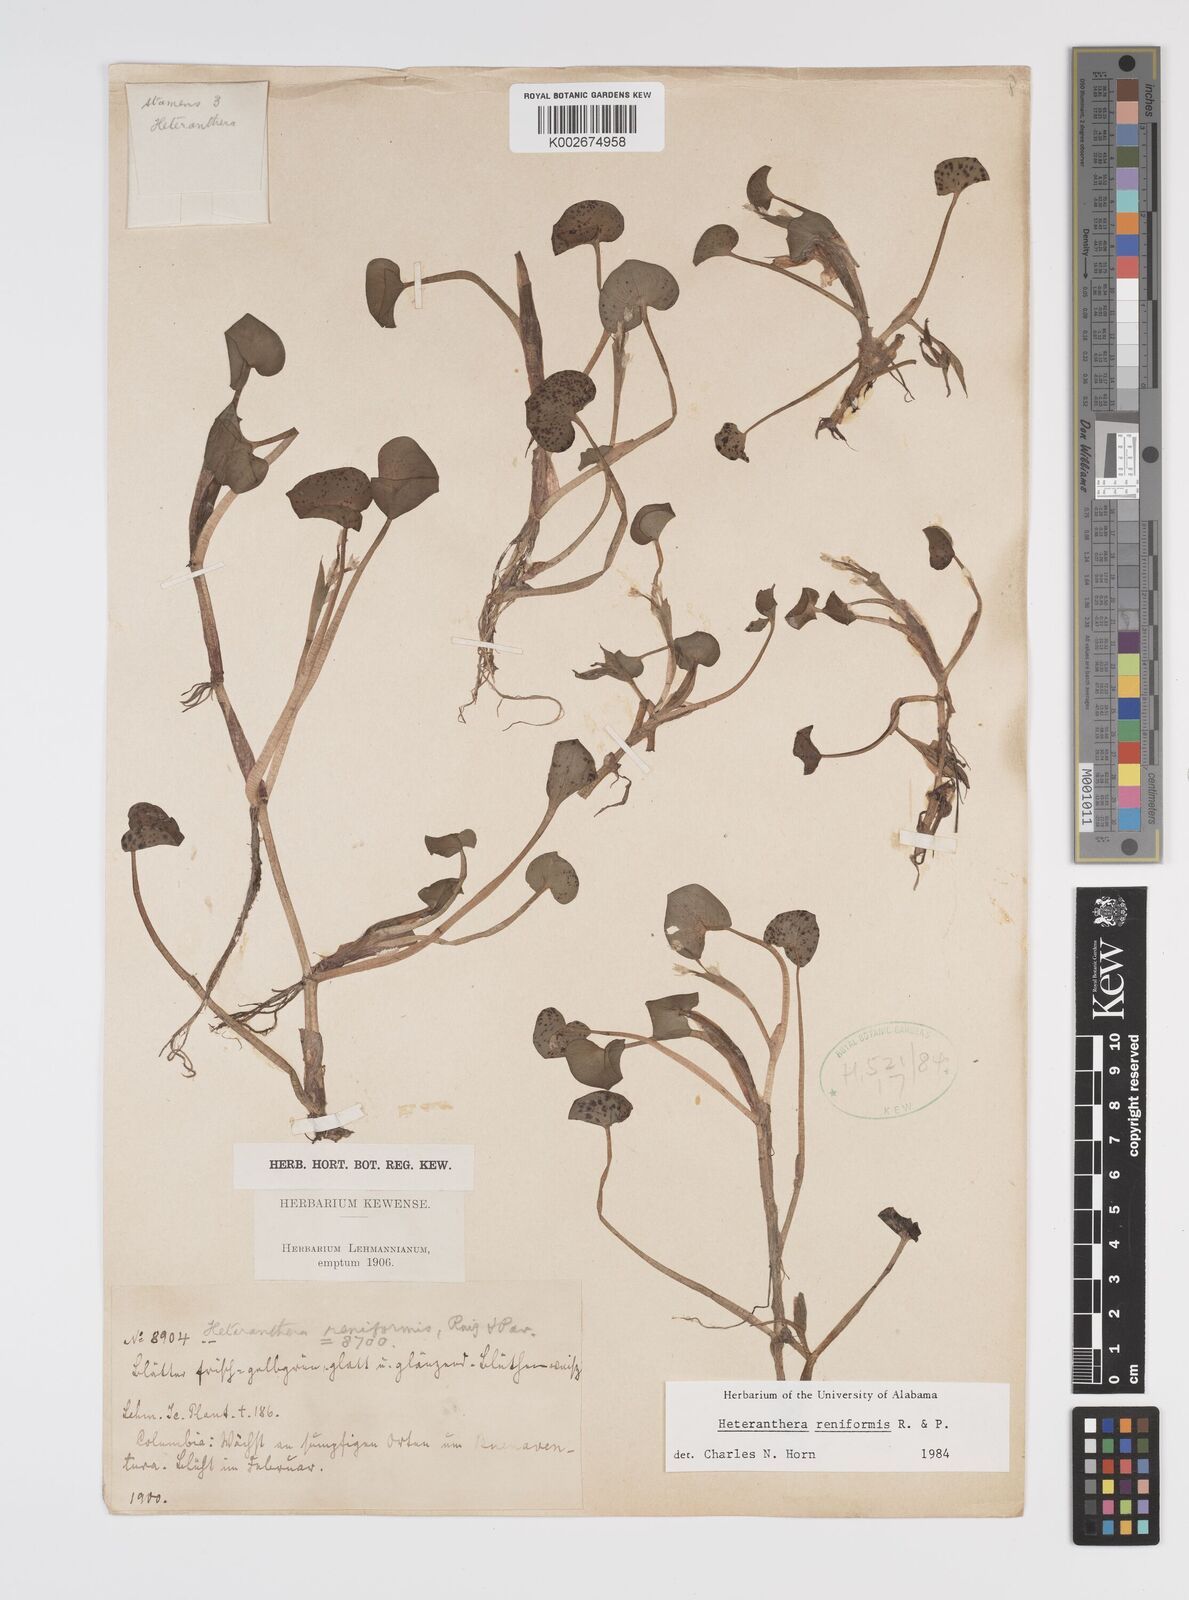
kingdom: Plantae
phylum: Tracheophyta
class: Liliopsida
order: Commelinales
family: Pontederiaceae
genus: Heteranthera
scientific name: Heteranthera reniformis
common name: Kidneyleaf mudplantain
